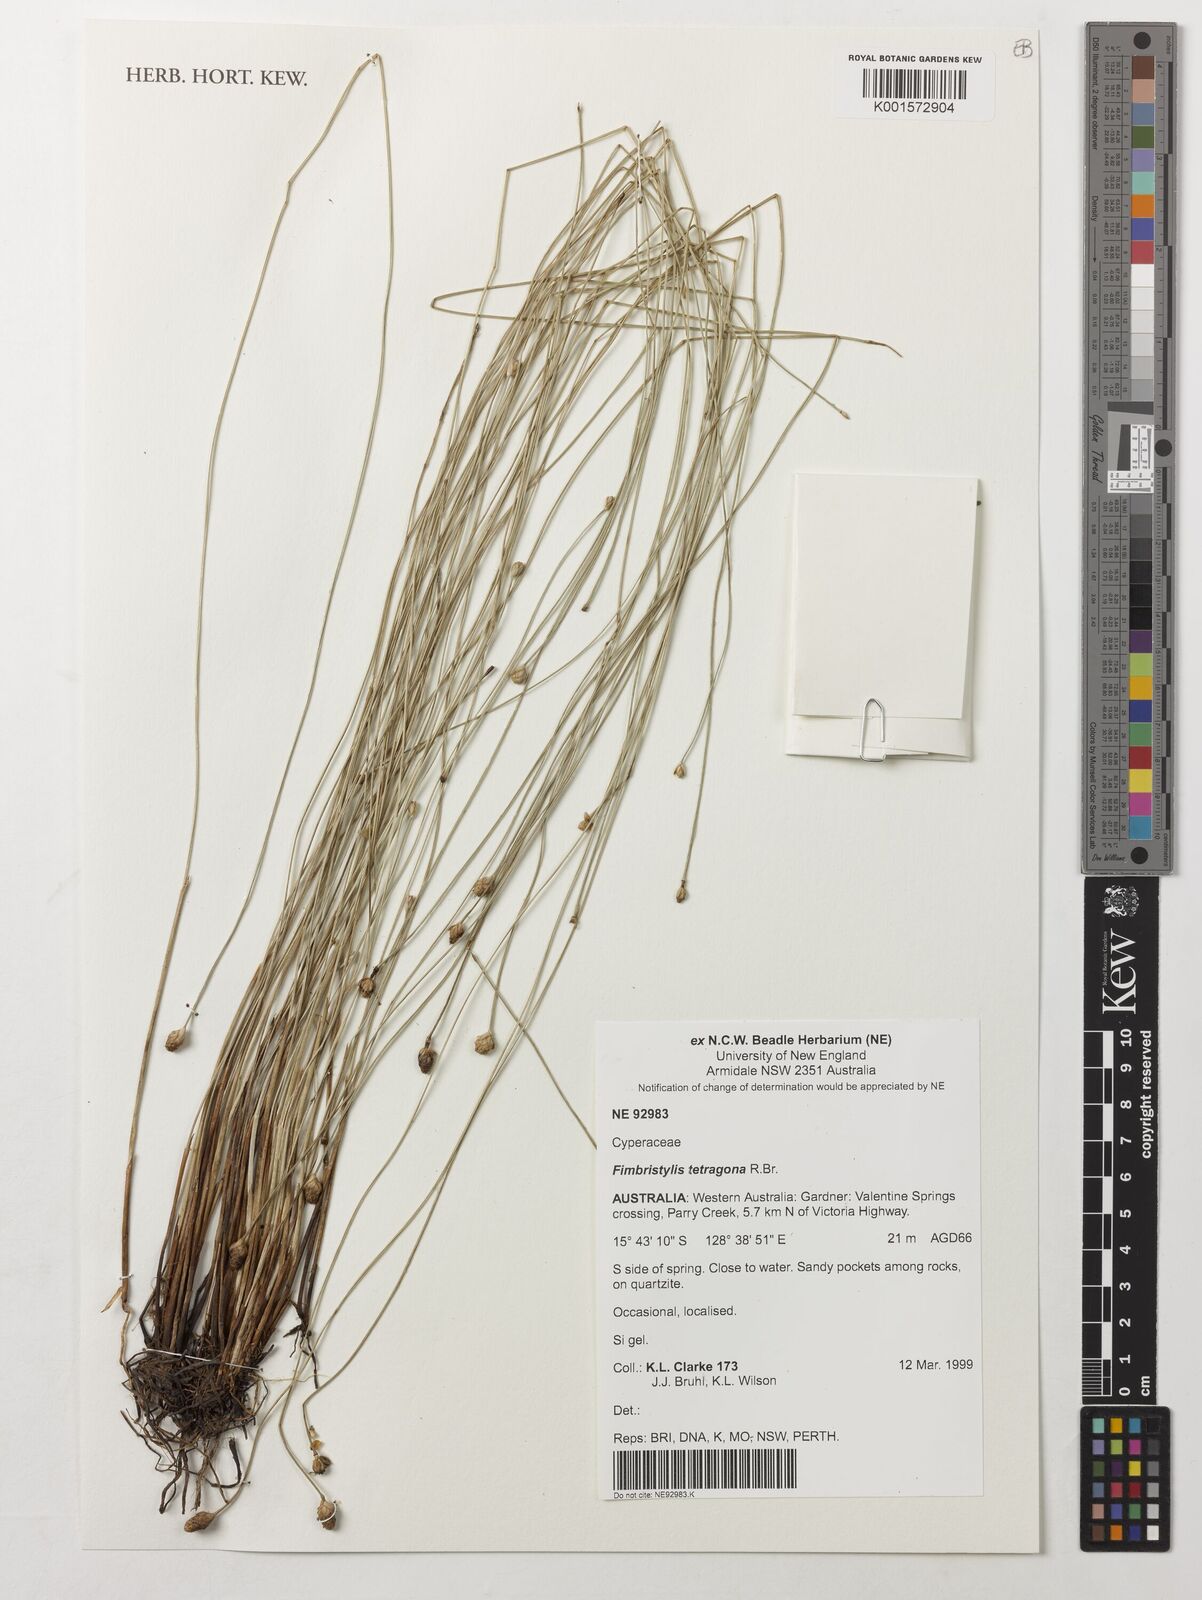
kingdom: Plantae
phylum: Tracheophyta
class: Liliopsida
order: Poales
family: Cyperaceae
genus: Fimbristylis
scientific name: Fimbristylis tetragona
